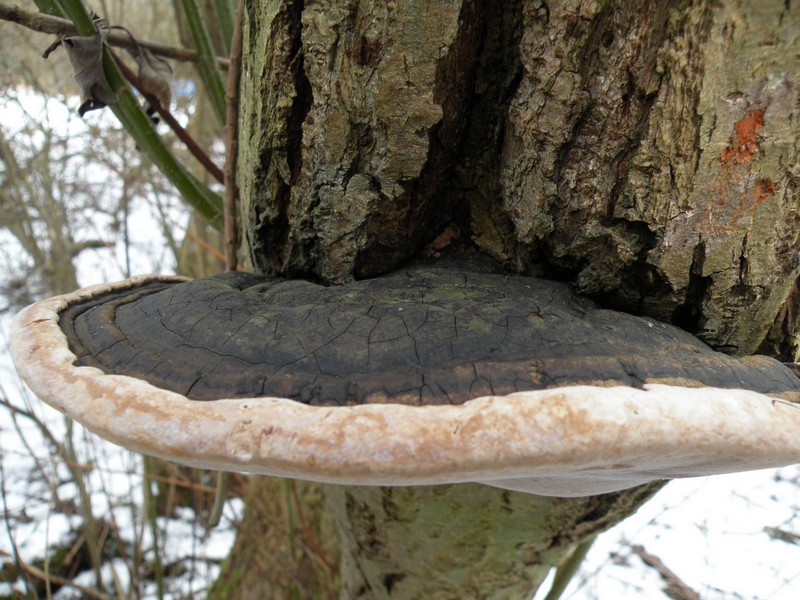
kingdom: Fungi
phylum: Basidiomycota
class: Agaricomycetes
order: Hymenochaetales
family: Hymenochaetaceae
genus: Phellinus
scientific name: Phellinus igniarius
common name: almindelig ildporesvamp
